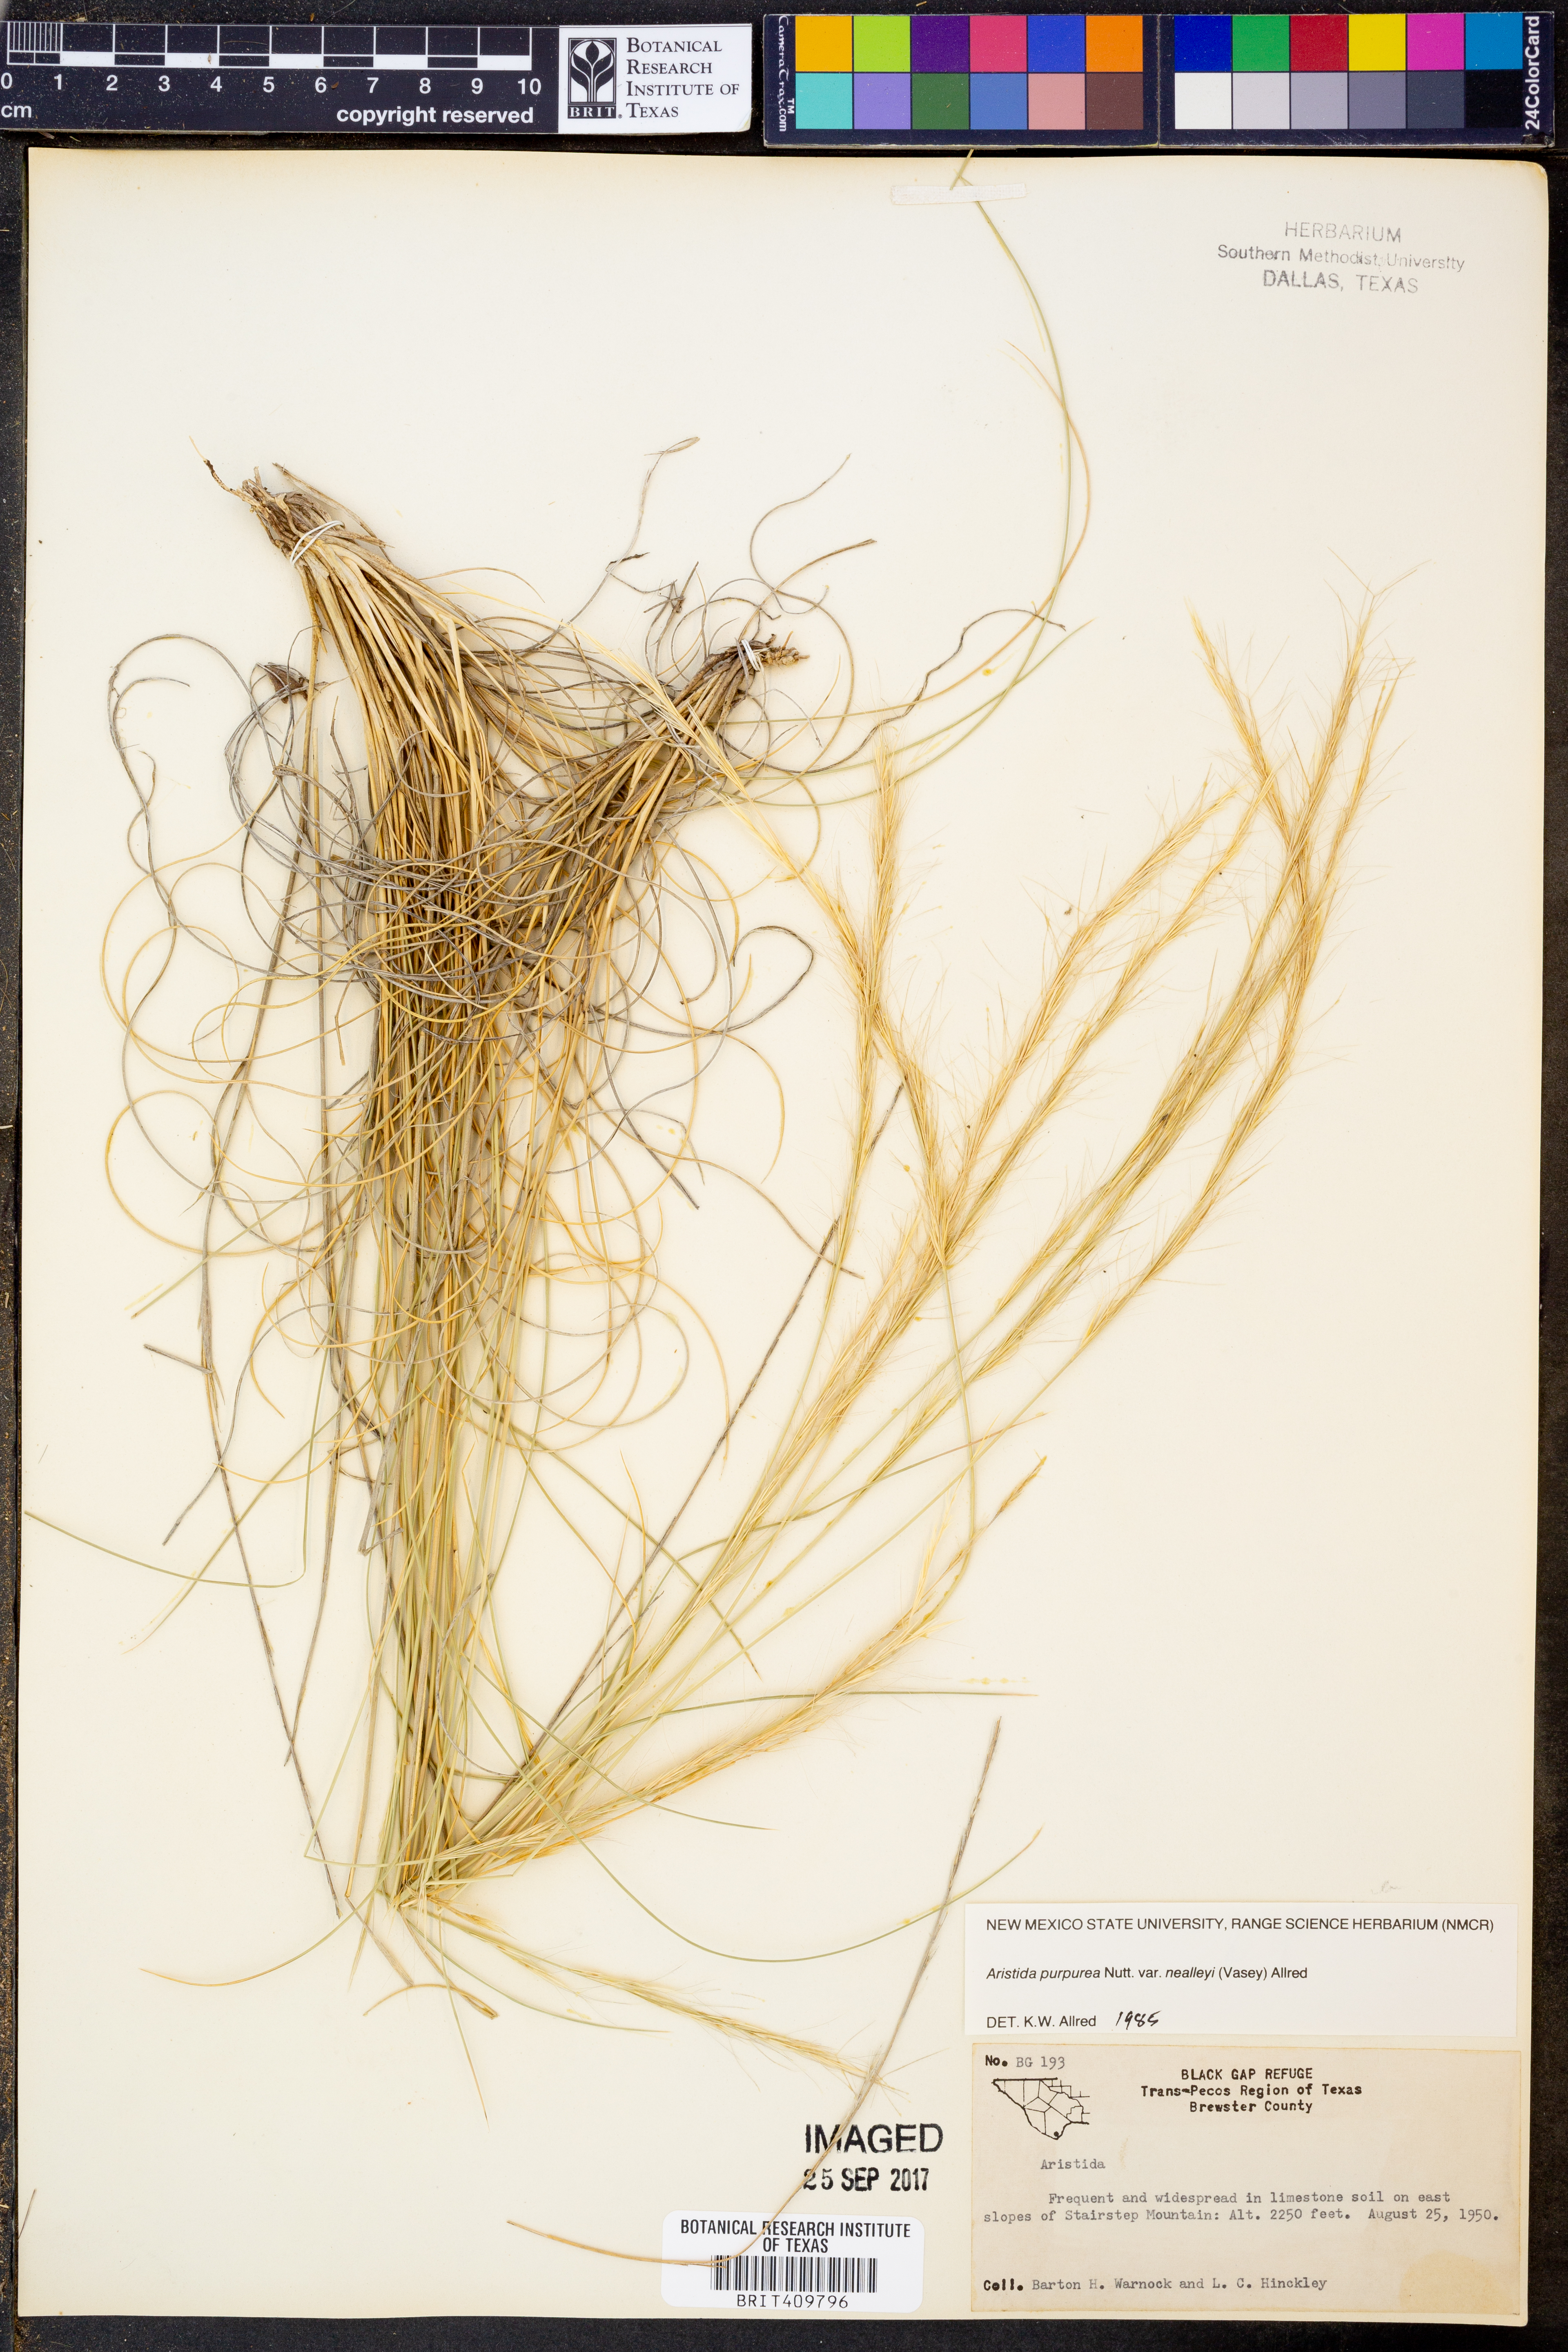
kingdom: Plantae
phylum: Tracheophyta
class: Liliopsida
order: Poales
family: Poaceae
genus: Aristida
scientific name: Aristida glauca
